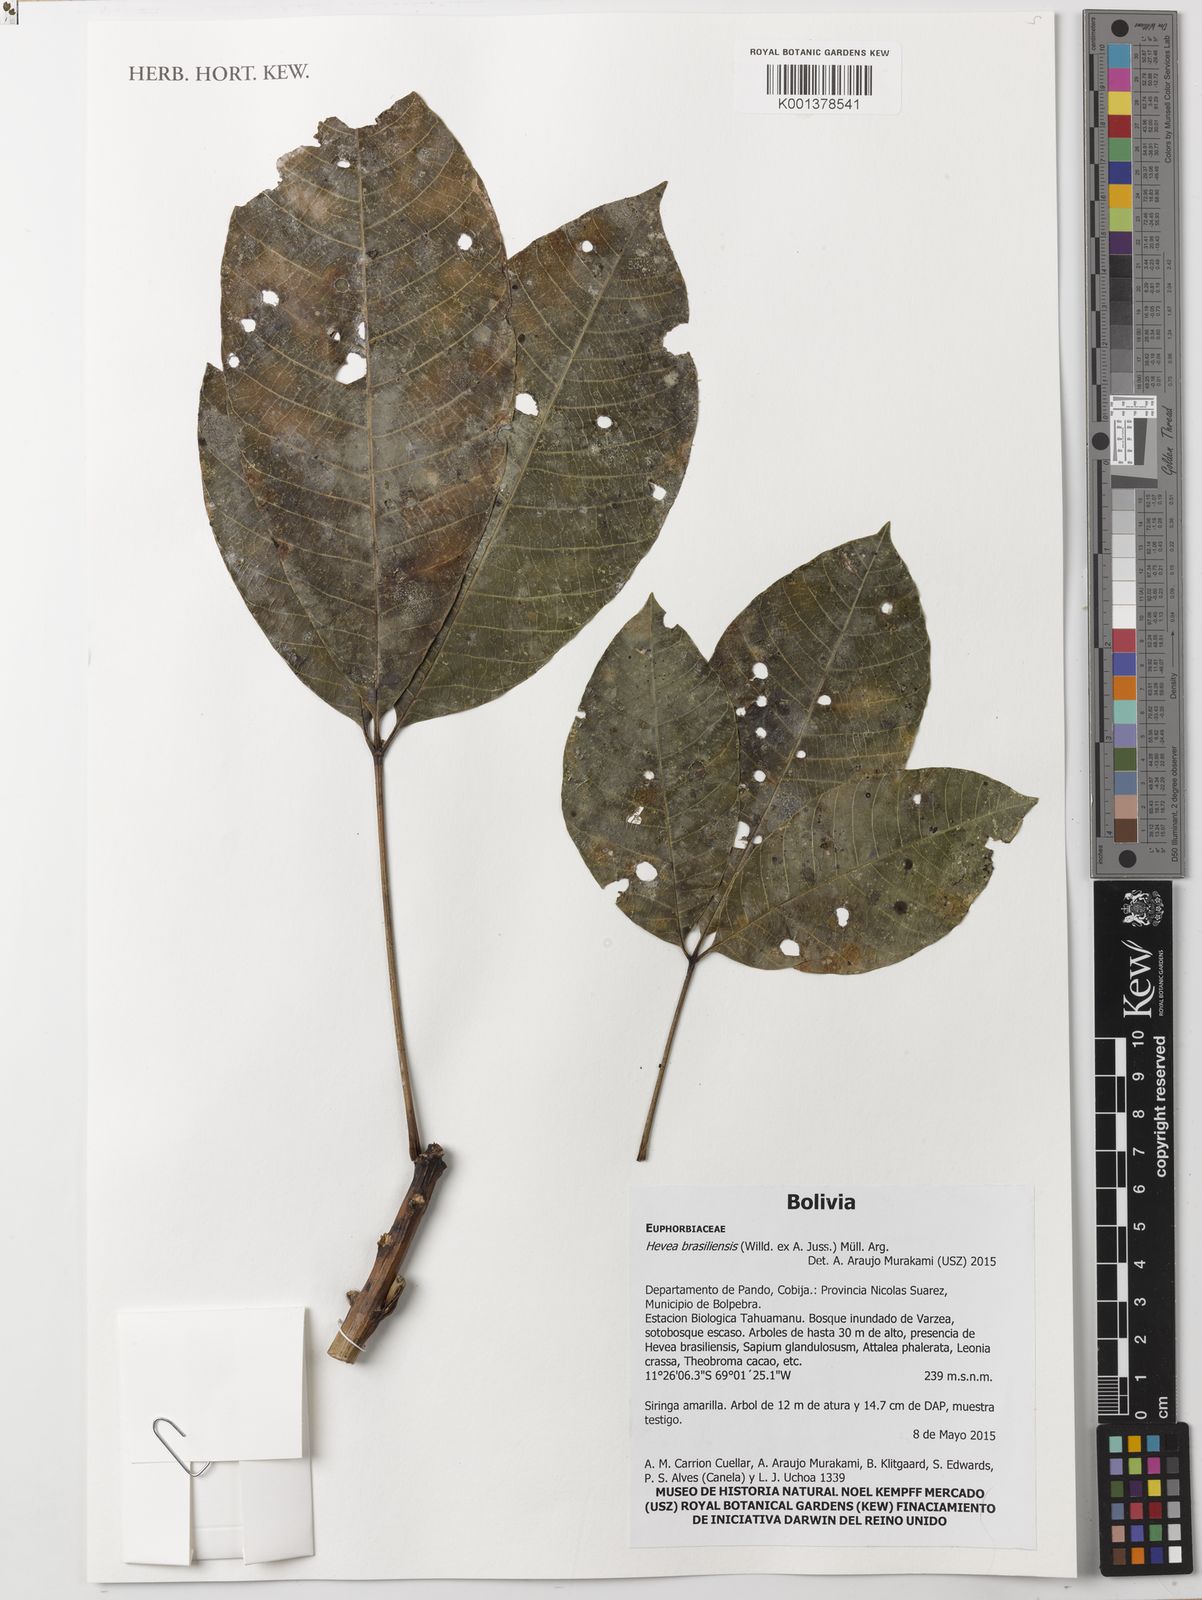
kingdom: Plantae
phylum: Tracheophyta
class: Magnoliopsida
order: Malpighiales
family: Euphorbiaceae
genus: Hevea
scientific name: Hevea brasiliensis
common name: Natural rubber
